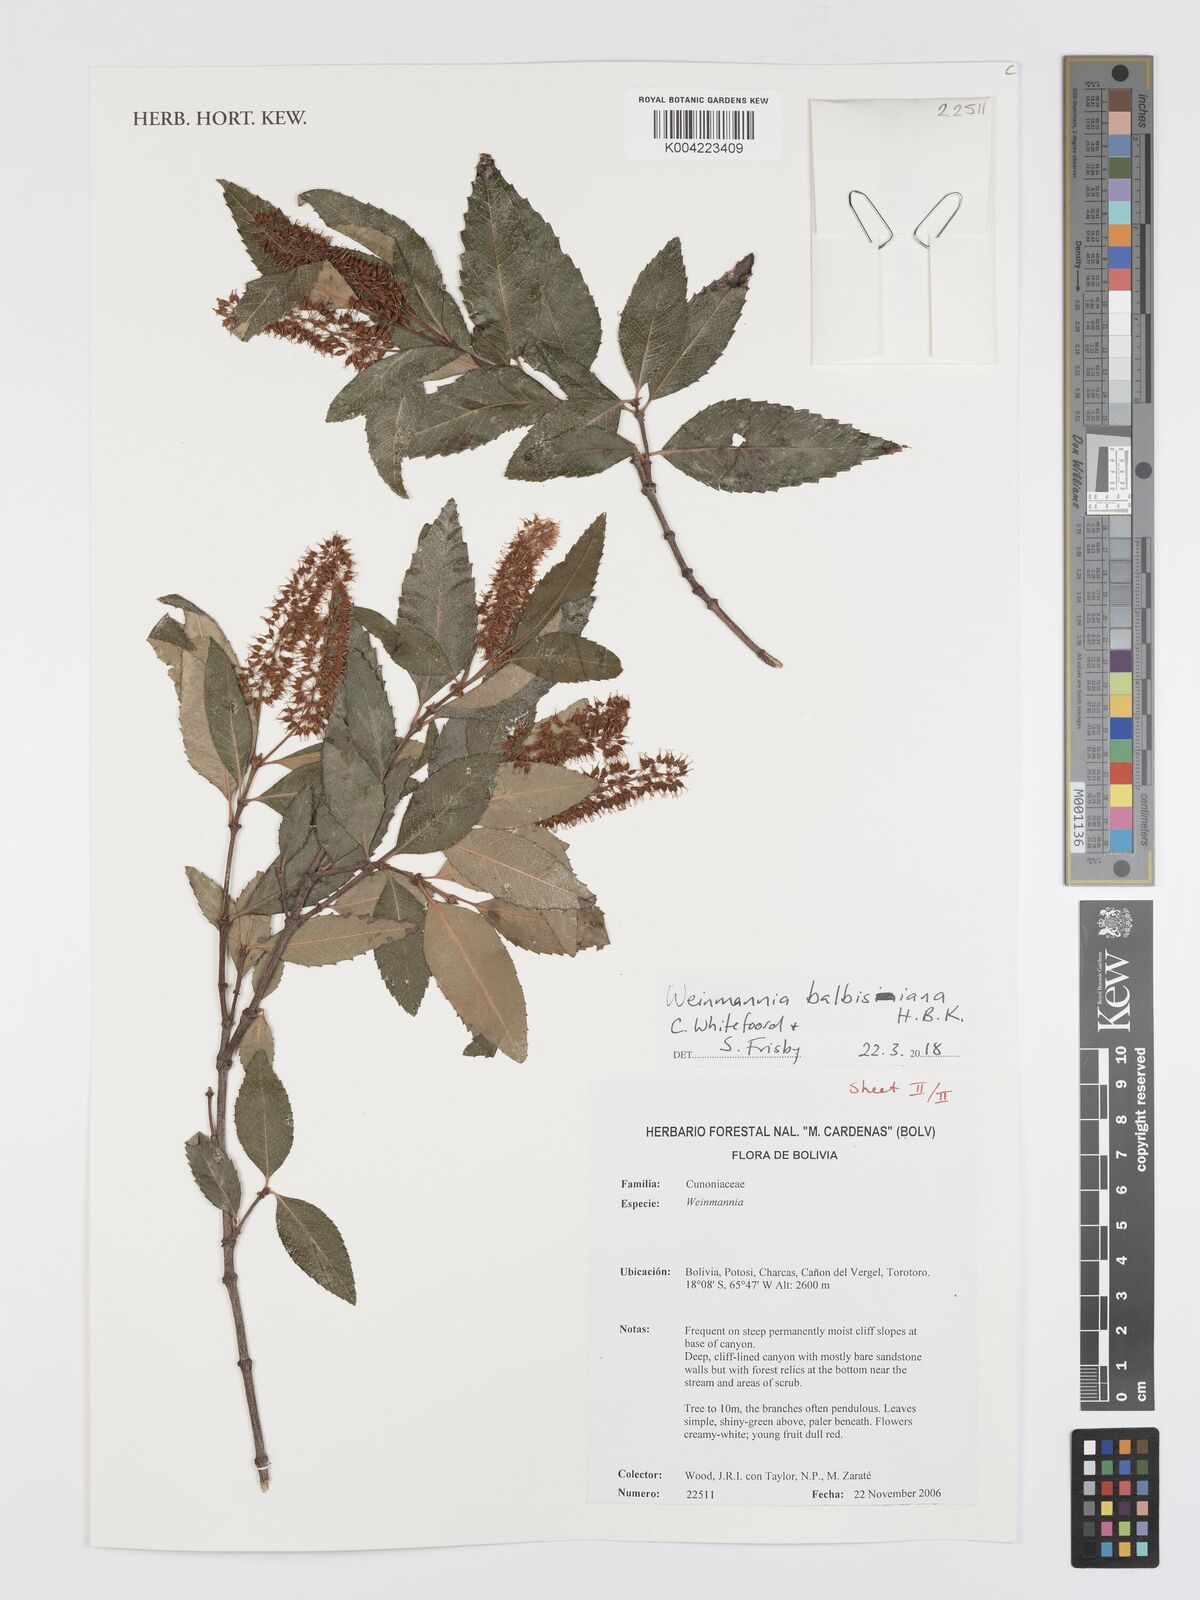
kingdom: Plantae
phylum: Tracheophyta
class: Magnoliopsida
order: Oxalidales
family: Cunoniaceae
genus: Weinmannia
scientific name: Weinmannia balbisana
